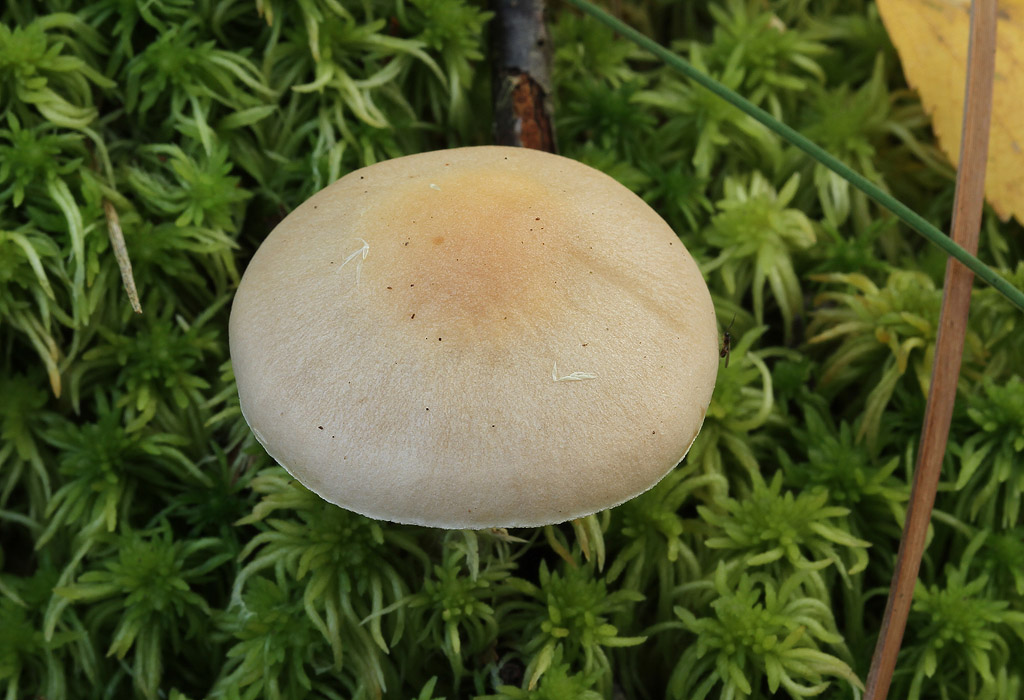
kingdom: Fungi
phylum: Basidiomycota
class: Agaricomycetes
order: Agaricales
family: Hymenogastraceae
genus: Hebeloma
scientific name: Hebeloma leucosarx
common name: højstokket tåreblad
